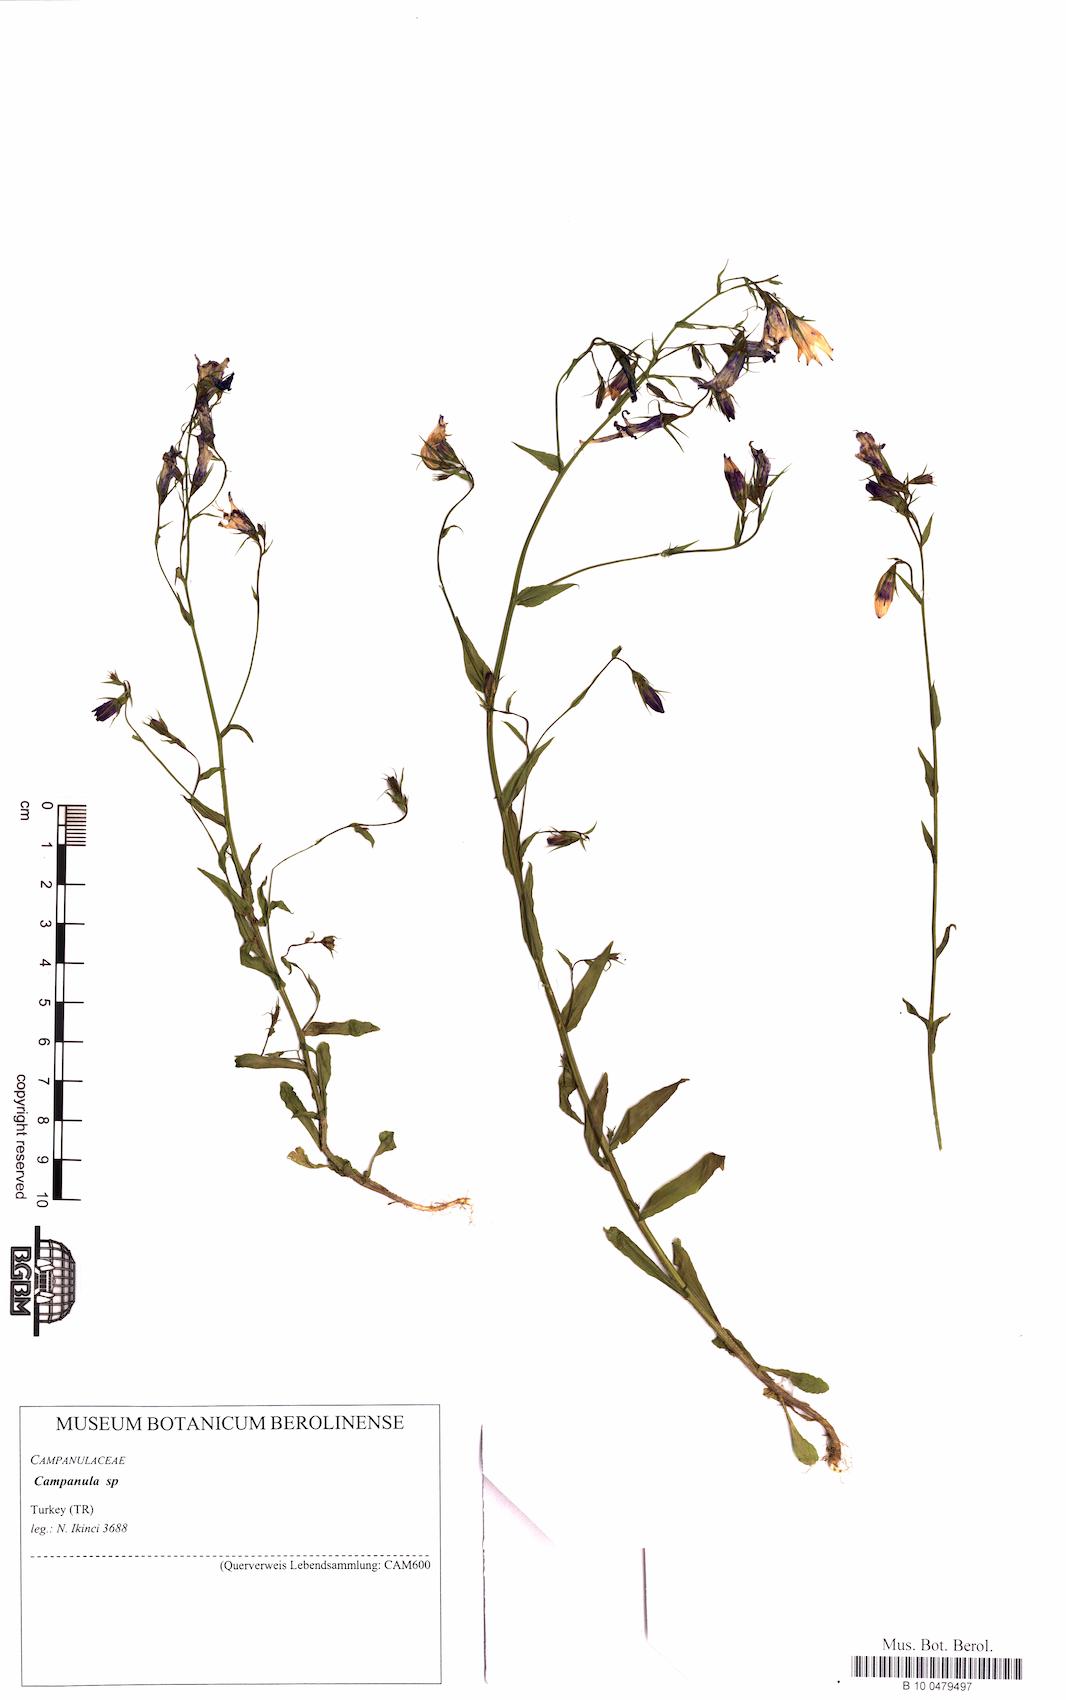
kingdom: Plantae
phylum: Tracheophyta
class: Magnoliopsida
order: Asterales
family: Campanulaceae
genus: Campanula
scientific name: Campanula
